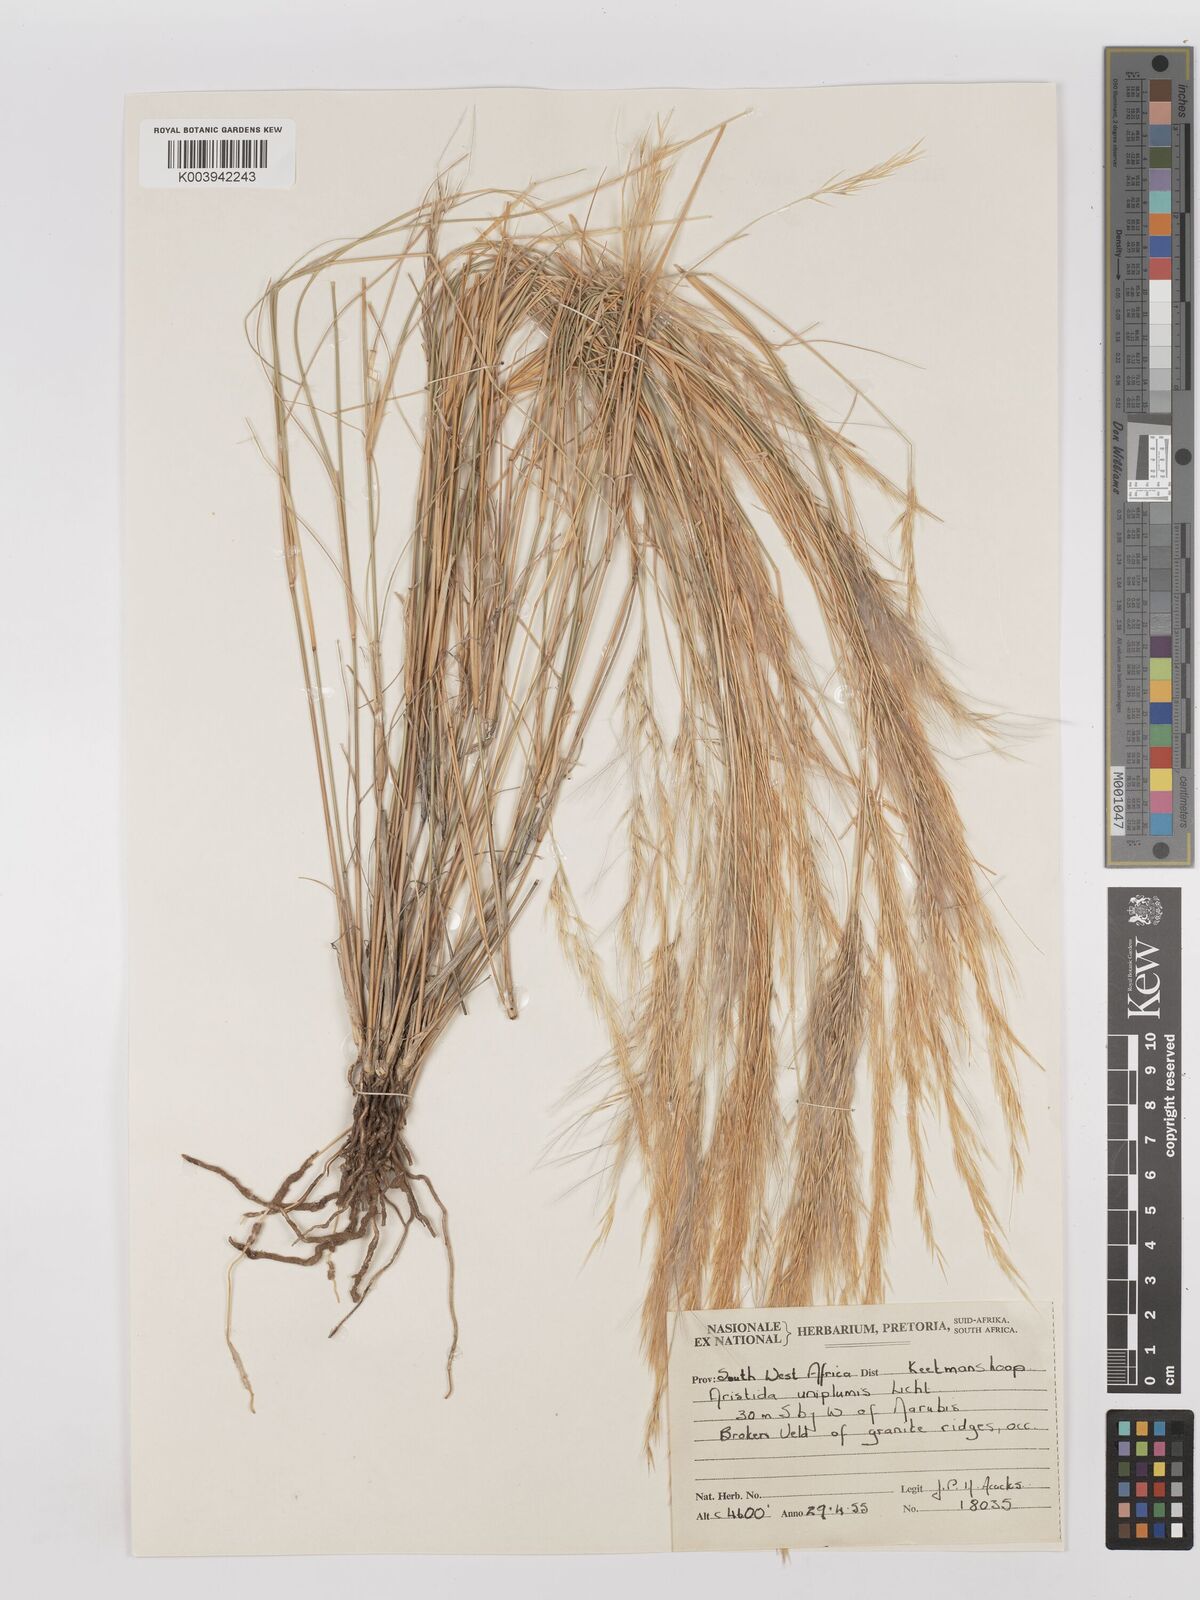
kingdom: Plantae
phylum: Tracheophyta
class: Liliopsida
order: Poales
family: Poaceae
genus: Stipagrostis
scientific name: Stipagrostis uniplumis
